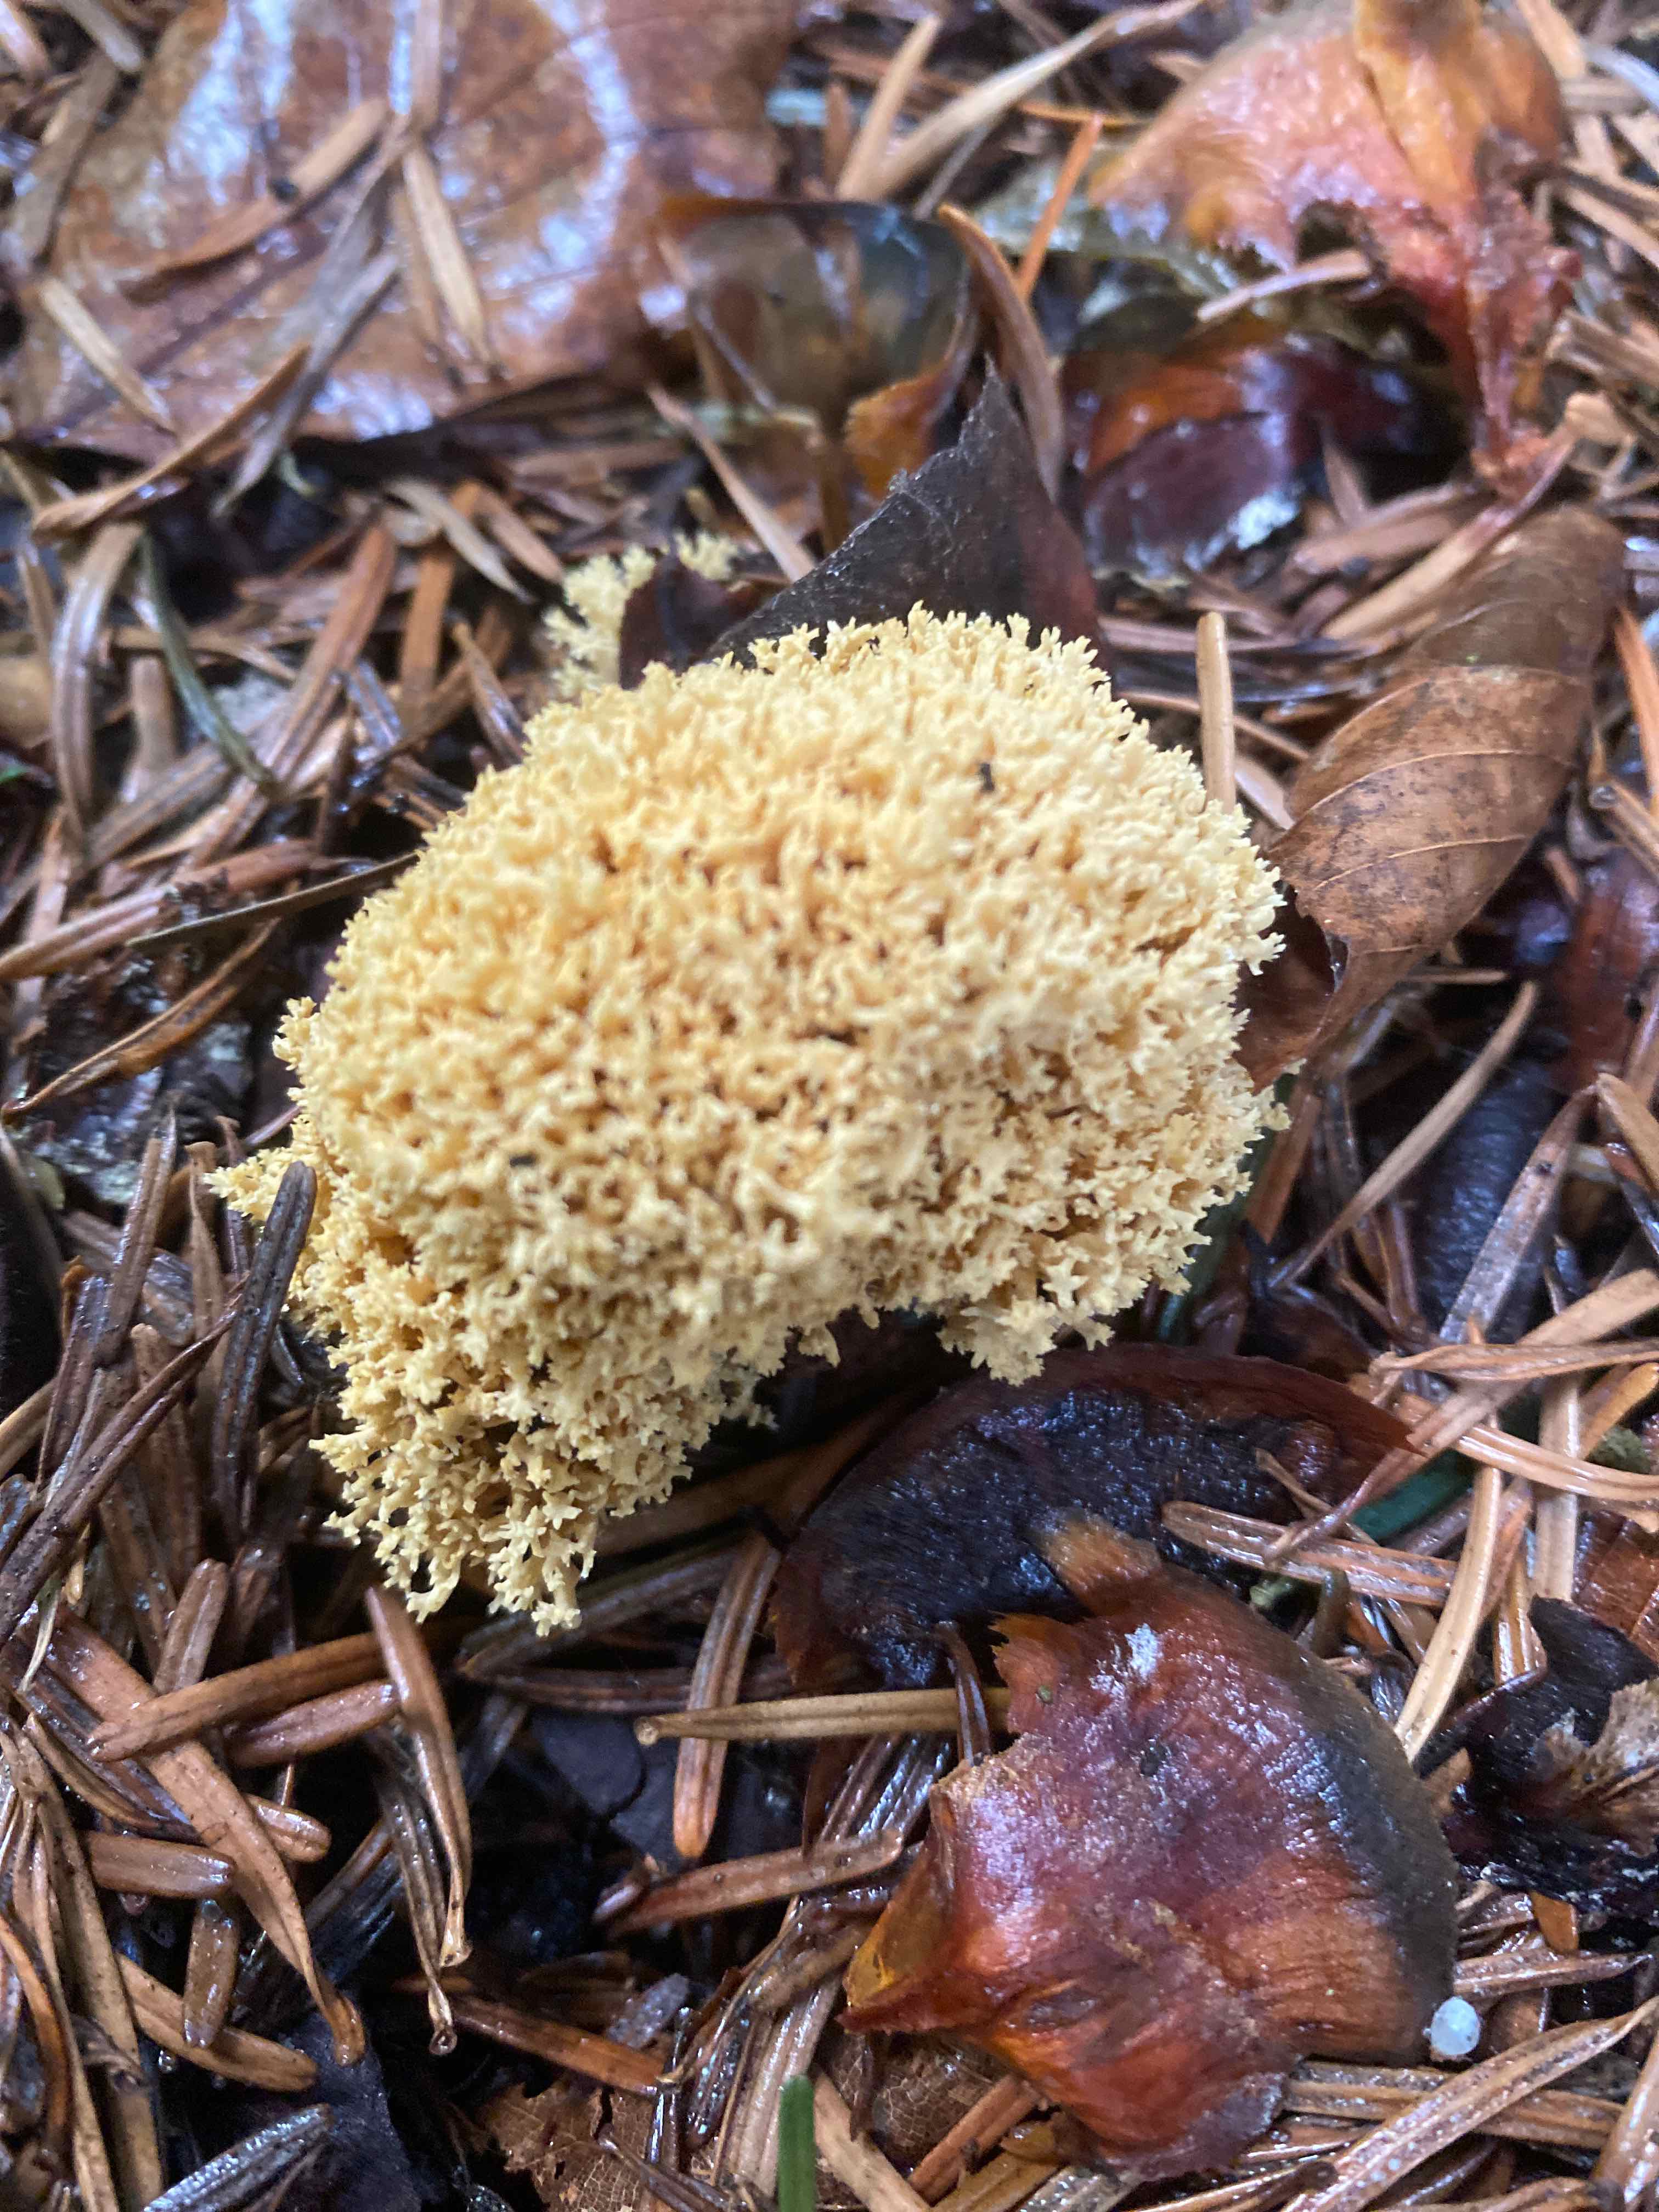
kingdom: Fungi
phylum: Basidiomycota
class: Agaricomycetes
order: Gomphales
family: Gomphaceae
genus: Phaeoclavulina
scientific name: Phaeoclavulina eumorpha
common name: gran-koralsvamp
